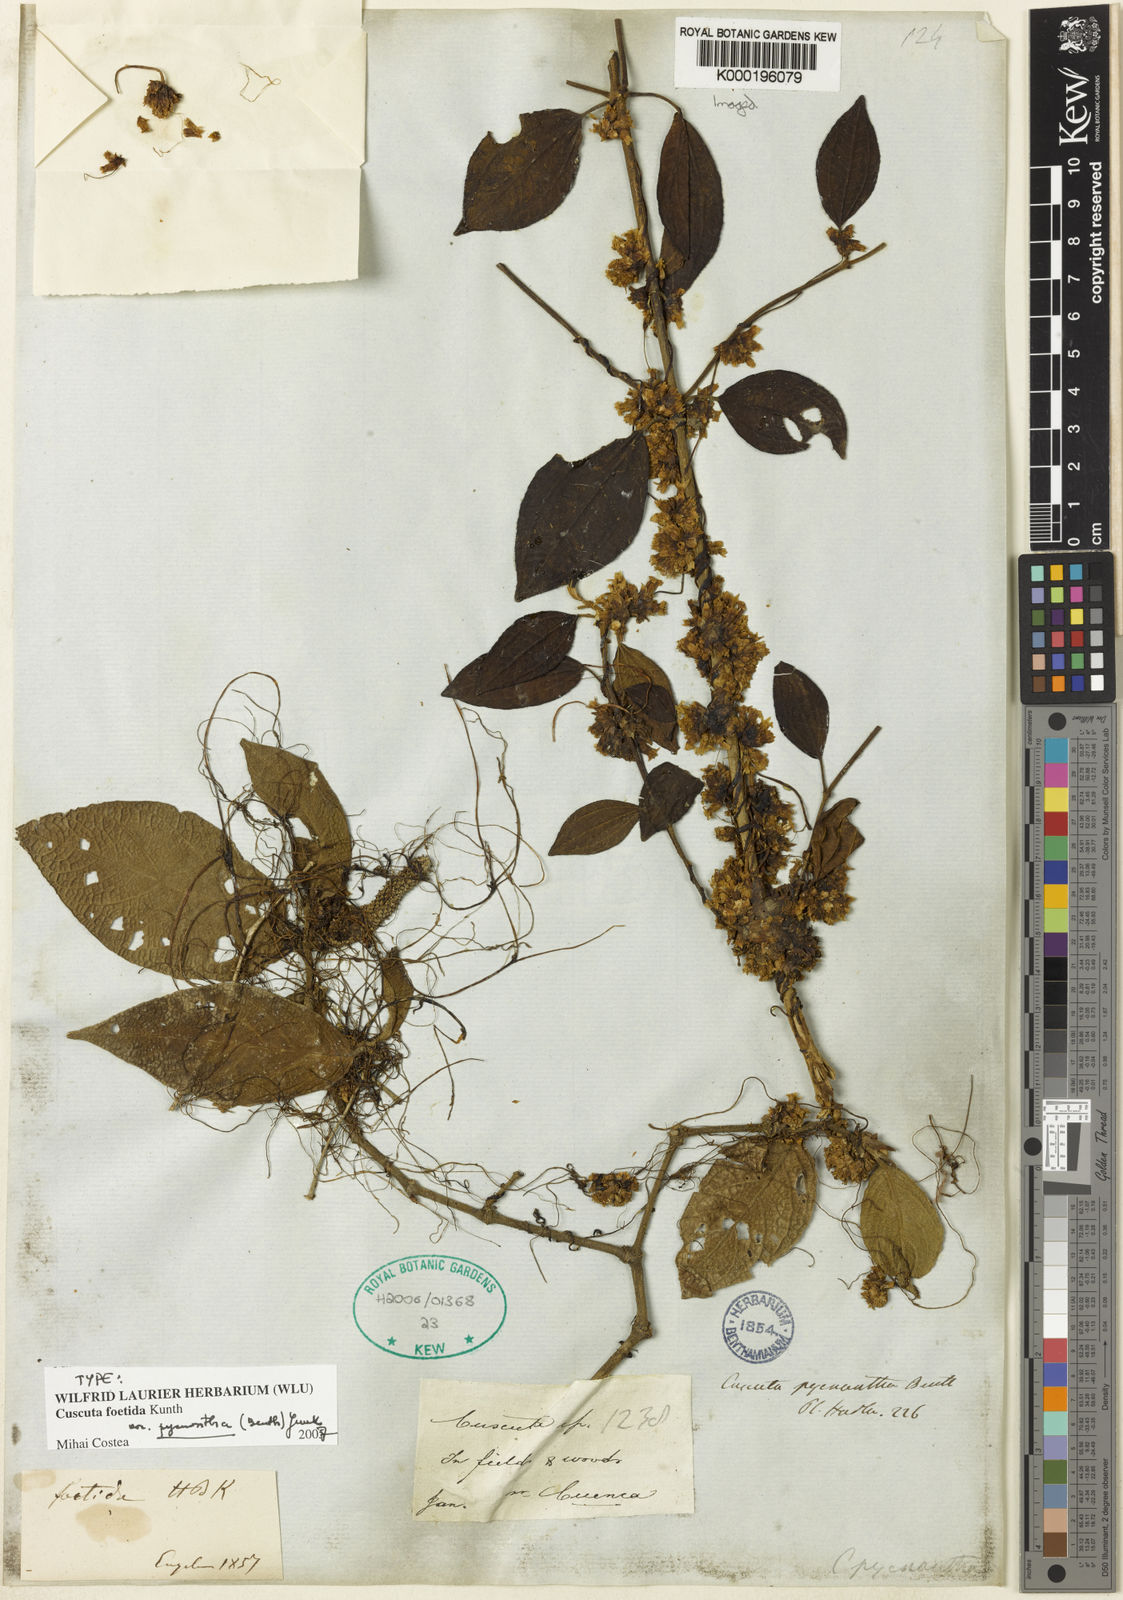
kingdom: Plantae
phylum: Tracheophyta
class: Magnoliopsida
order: Solanales
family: Convolvulaceae
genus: Cuscuta
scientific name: Cuscuta foetida
